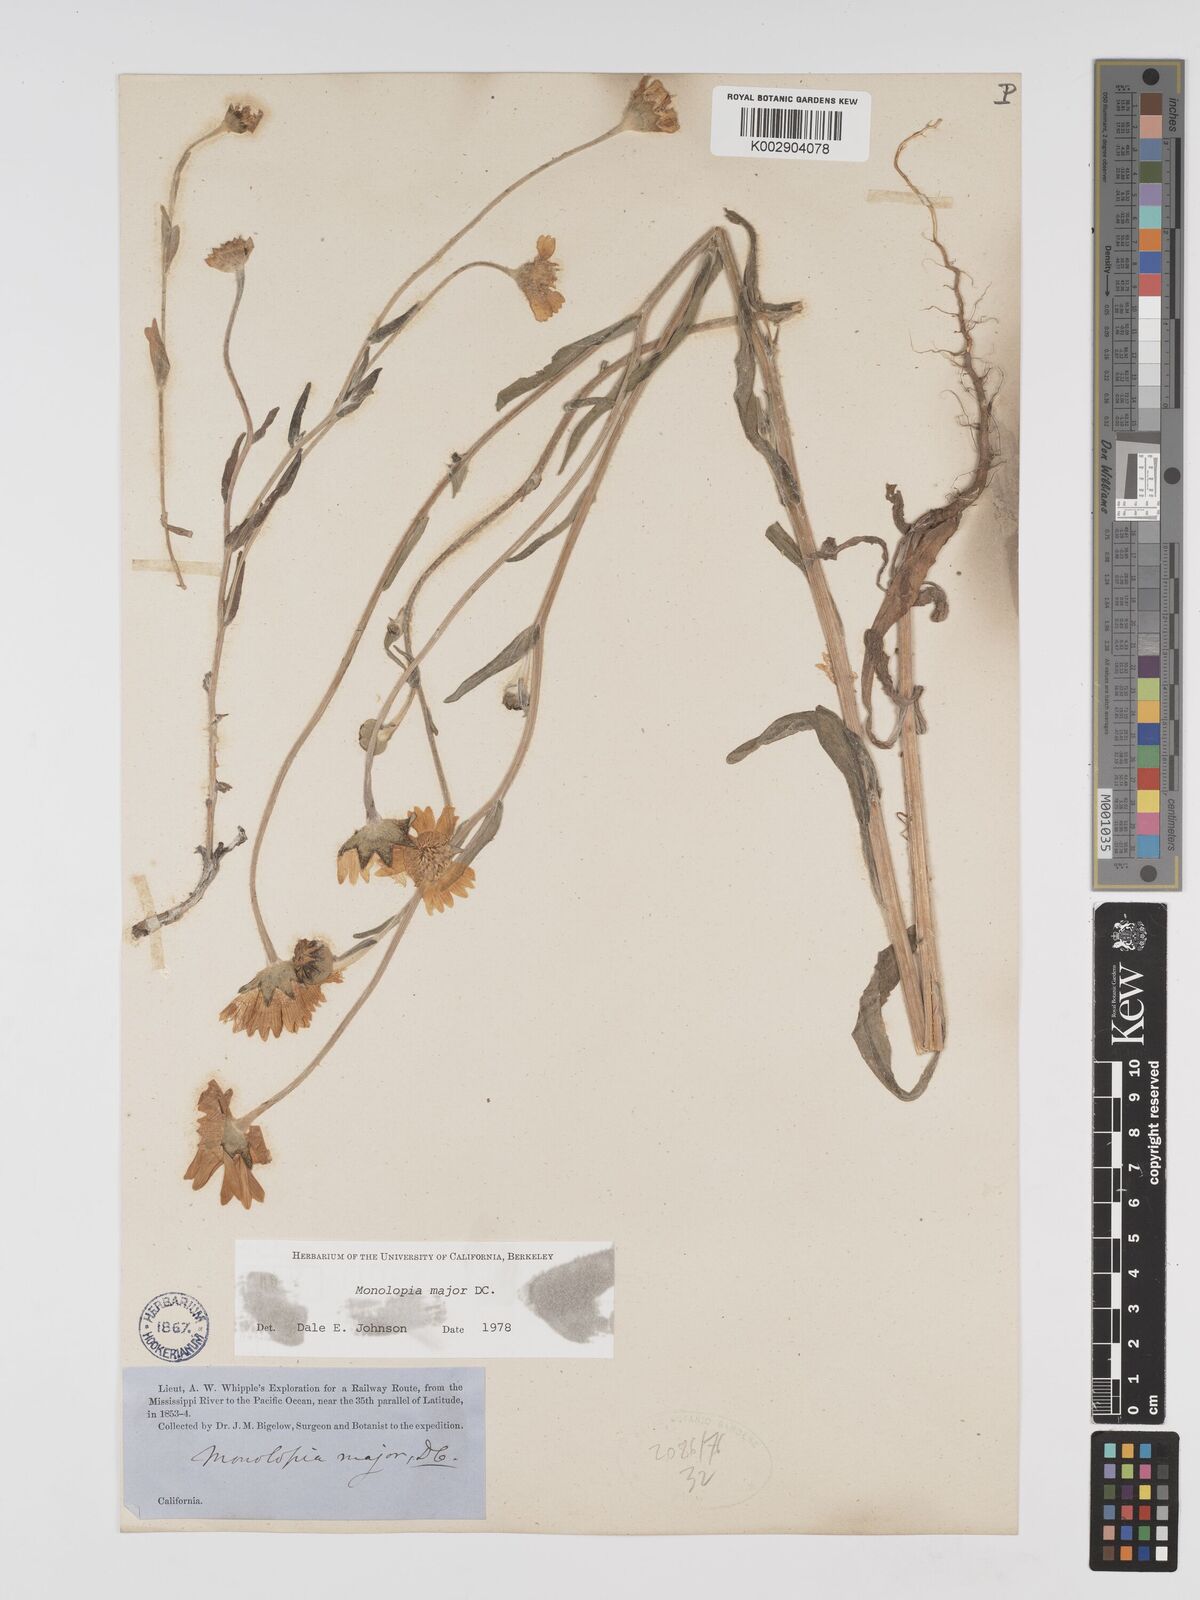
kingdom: Plantae
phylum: Tracheophyta
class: Magnoliopsida
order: Asterales
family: Asteraceae
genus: Monolopia
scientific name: Monolopia major
